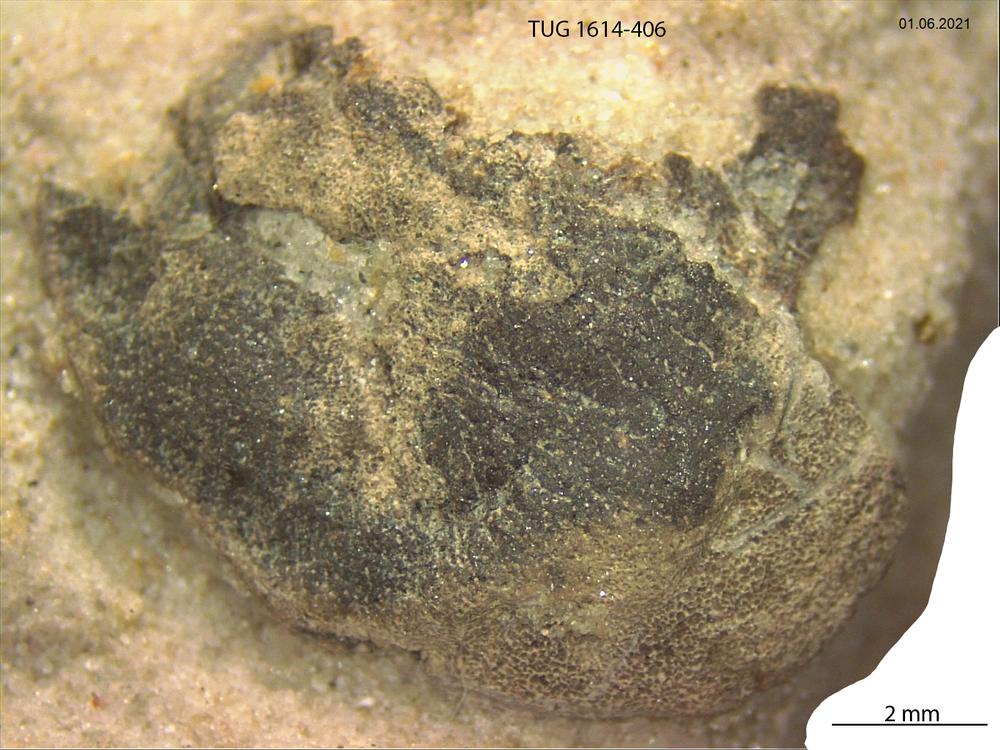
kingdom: Animalia
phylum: Mollusca
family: Scenellidae
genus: Scenella
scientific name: Scenella
